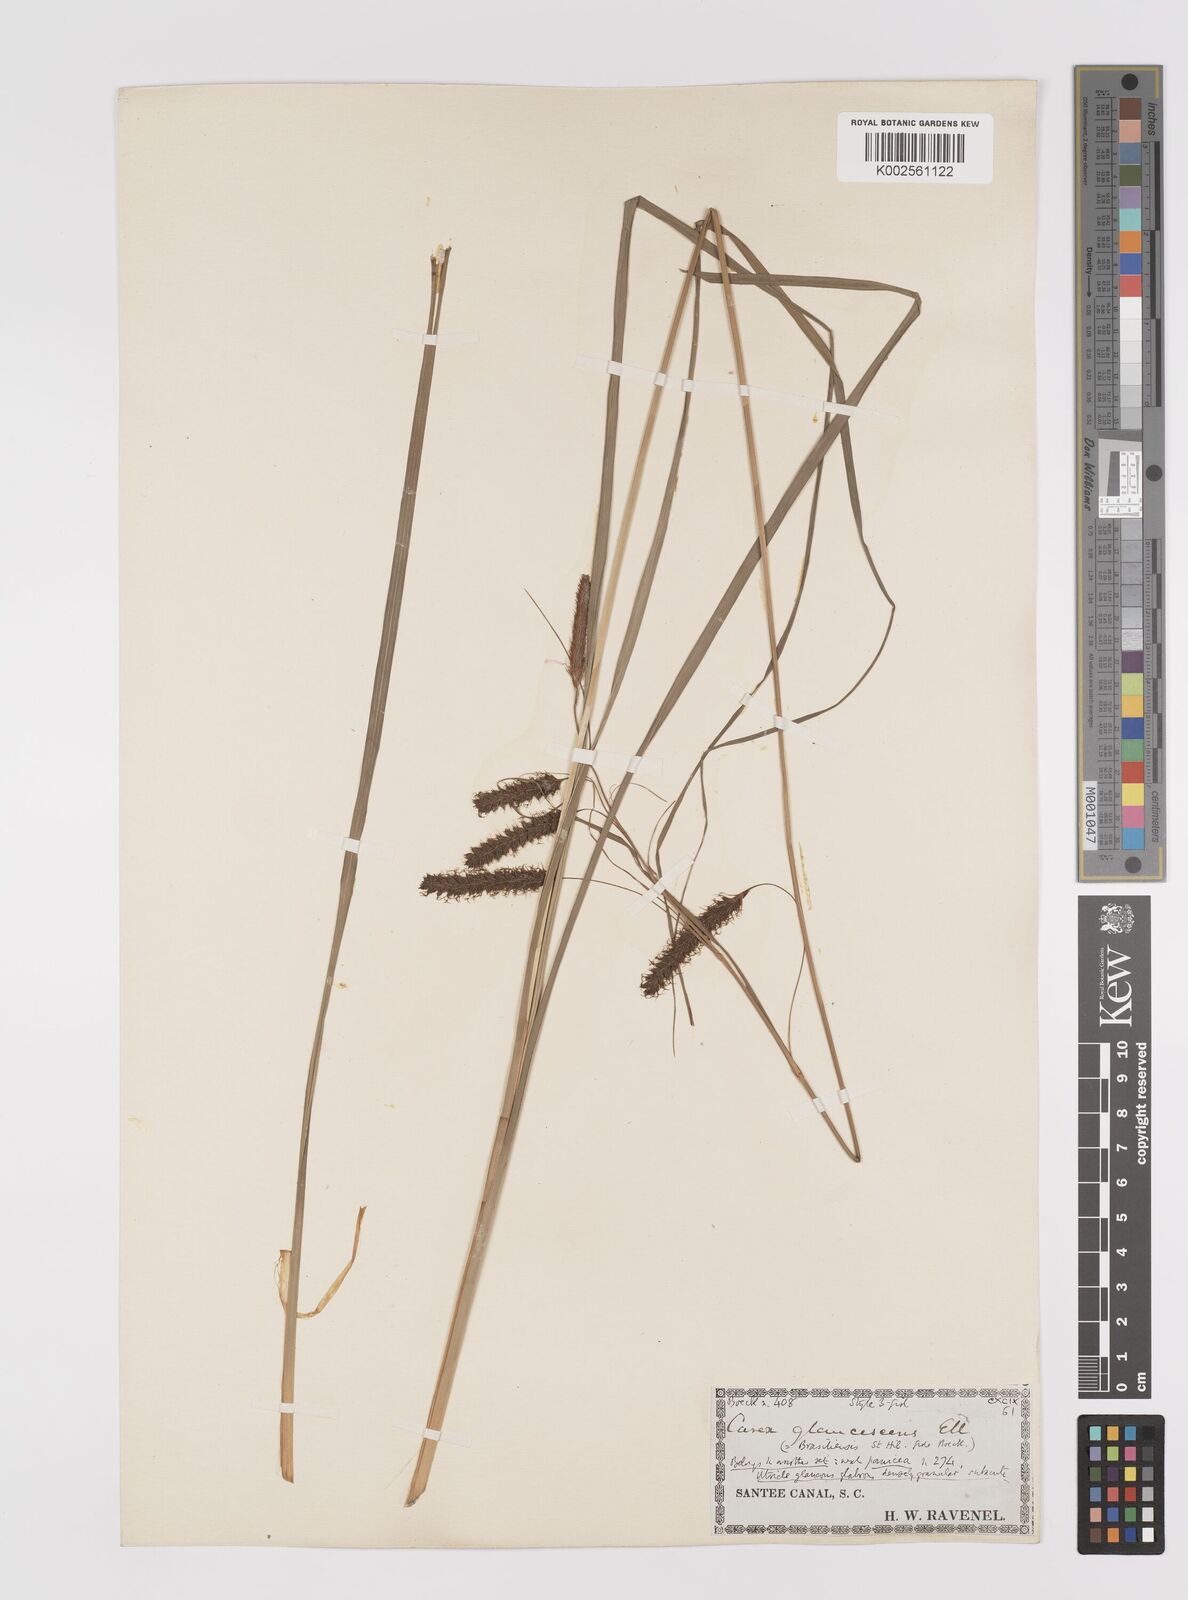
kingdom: Plantae
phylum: Tracheophyta
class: Liliopsida
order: Poales
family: Cyperaceae
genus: Carex
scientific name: Carex glaucescens
